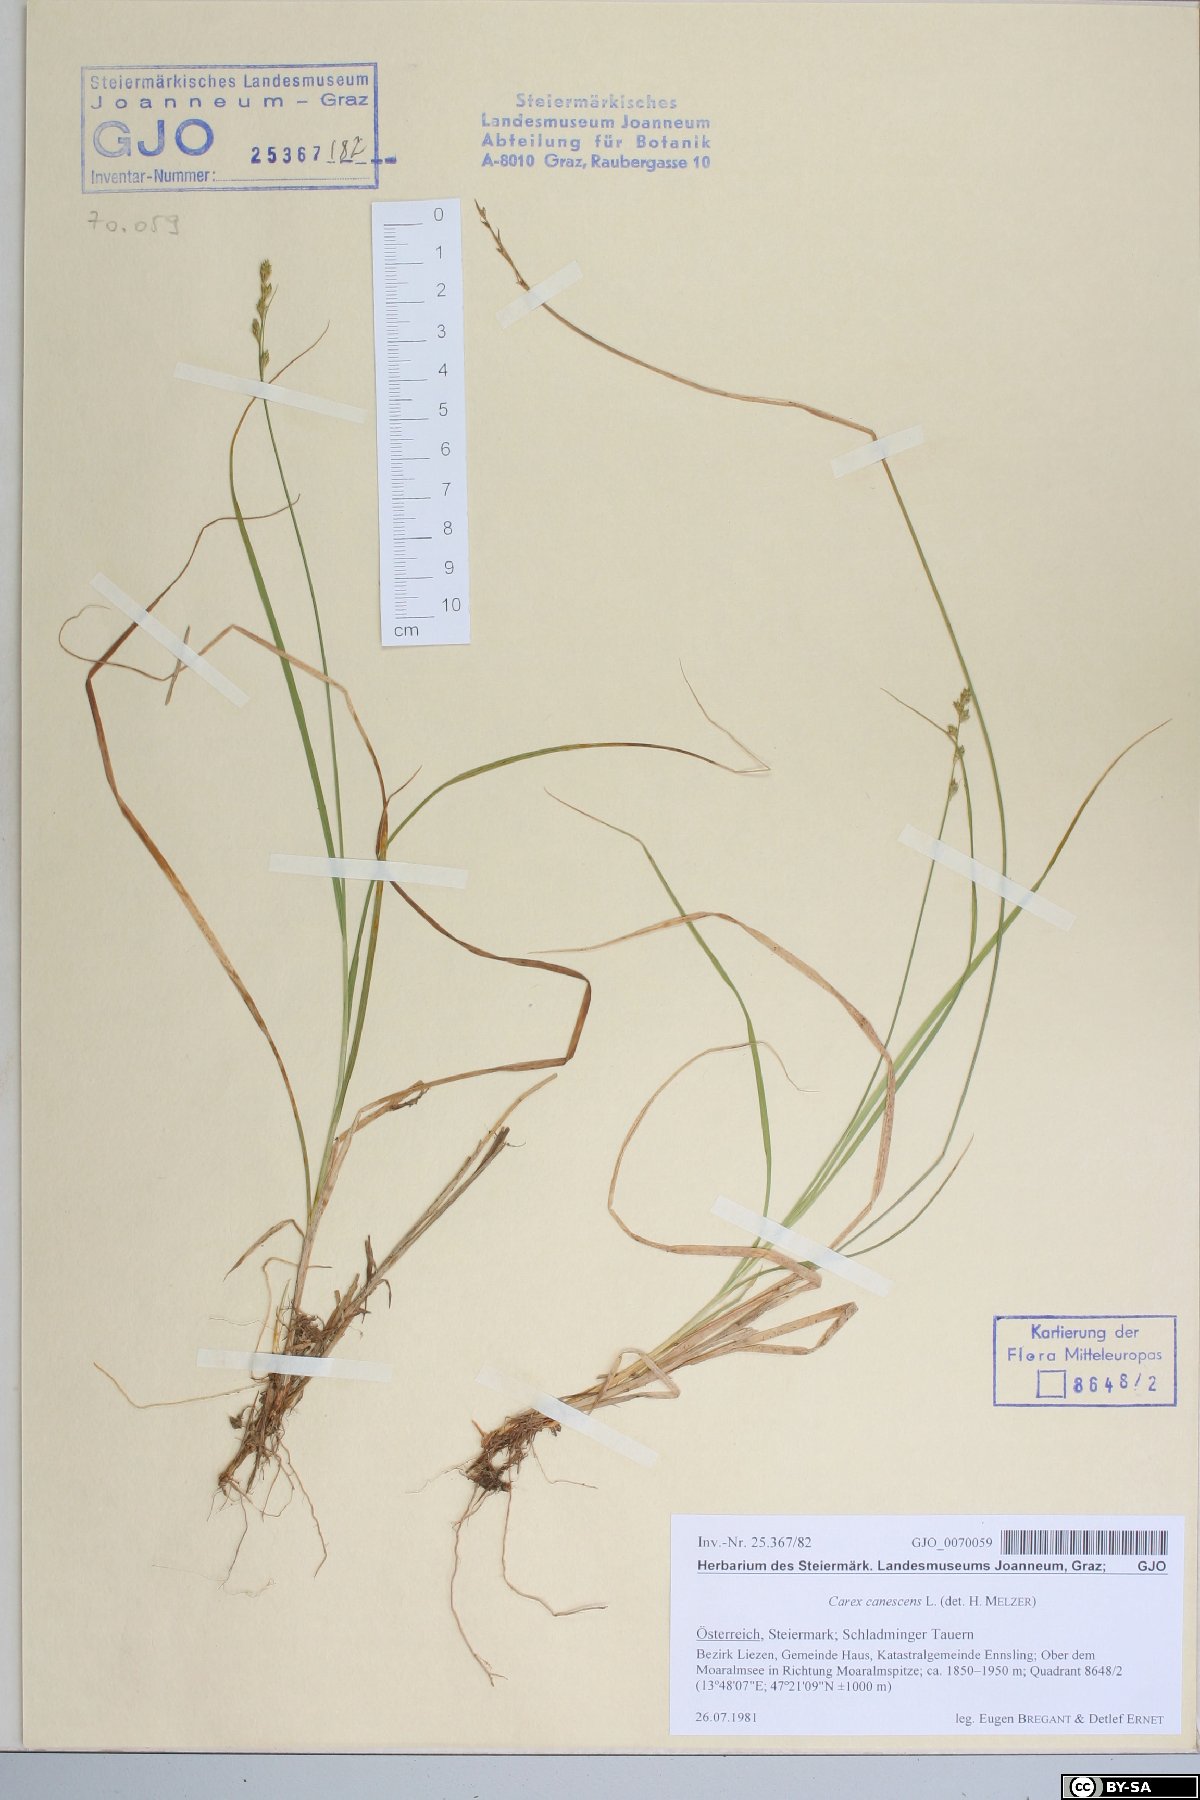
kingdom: Plantae
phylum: Tracheophyta
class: Liliopsida
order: Poales
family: Cyperaceae
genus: Carex
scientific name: Carex canescens
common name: White sedge
